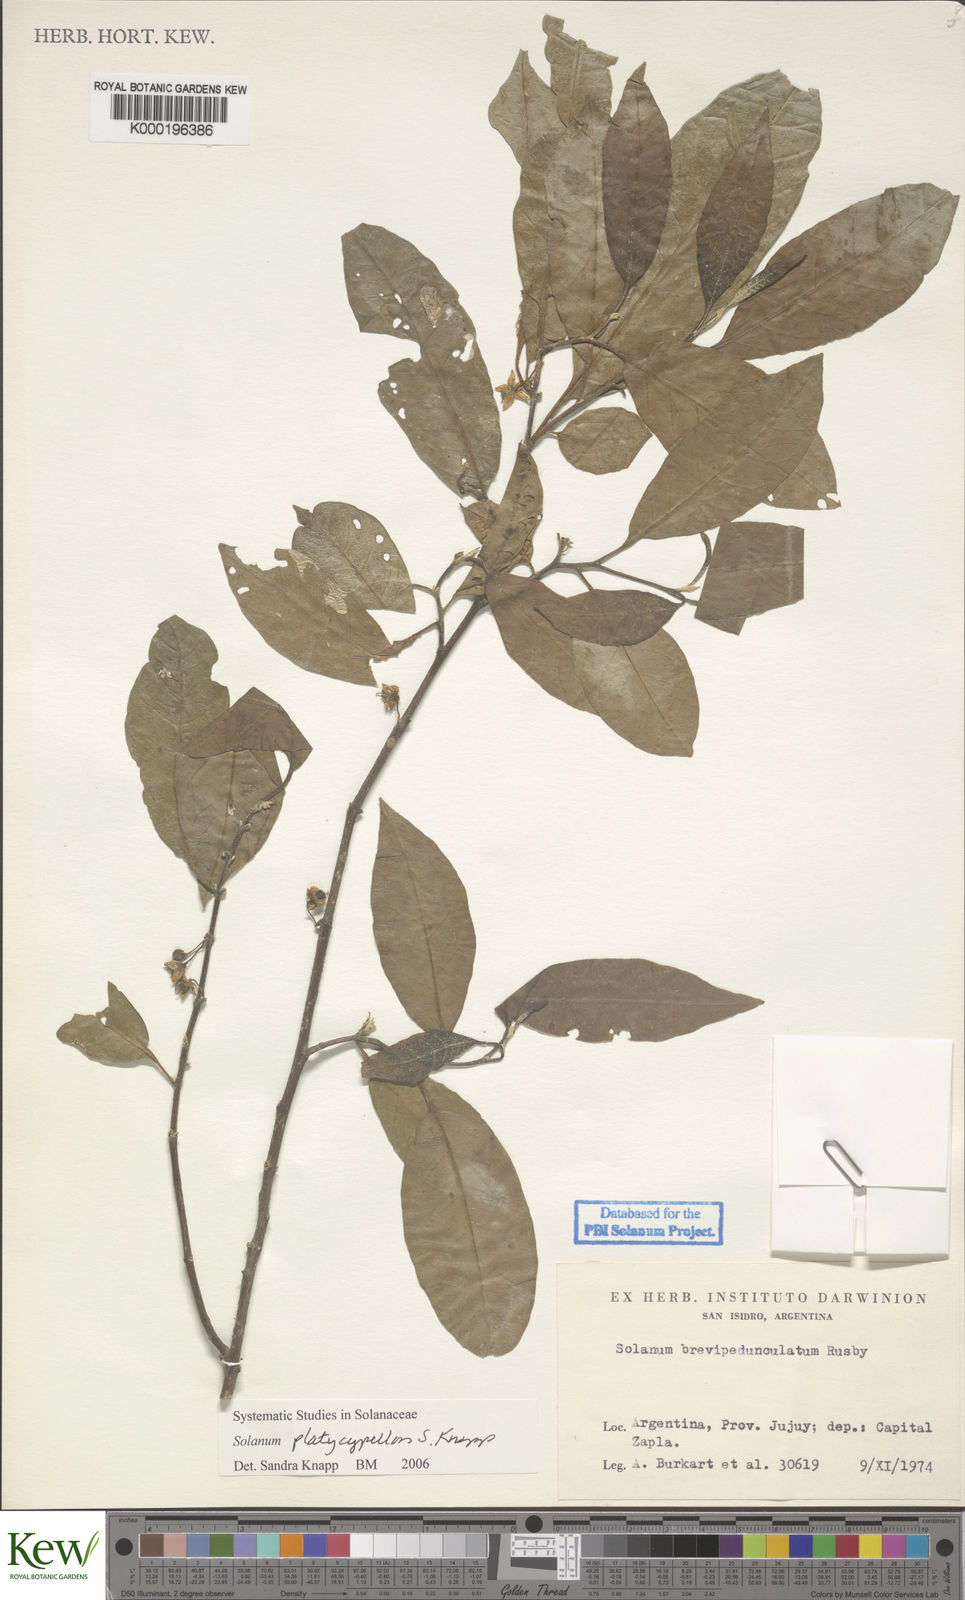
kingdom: Plantae
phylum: Tracheophyta
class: Magnoliopsida
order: Solanales
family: Solanaceae
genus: Solanum
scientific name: Solanum platycypellon
